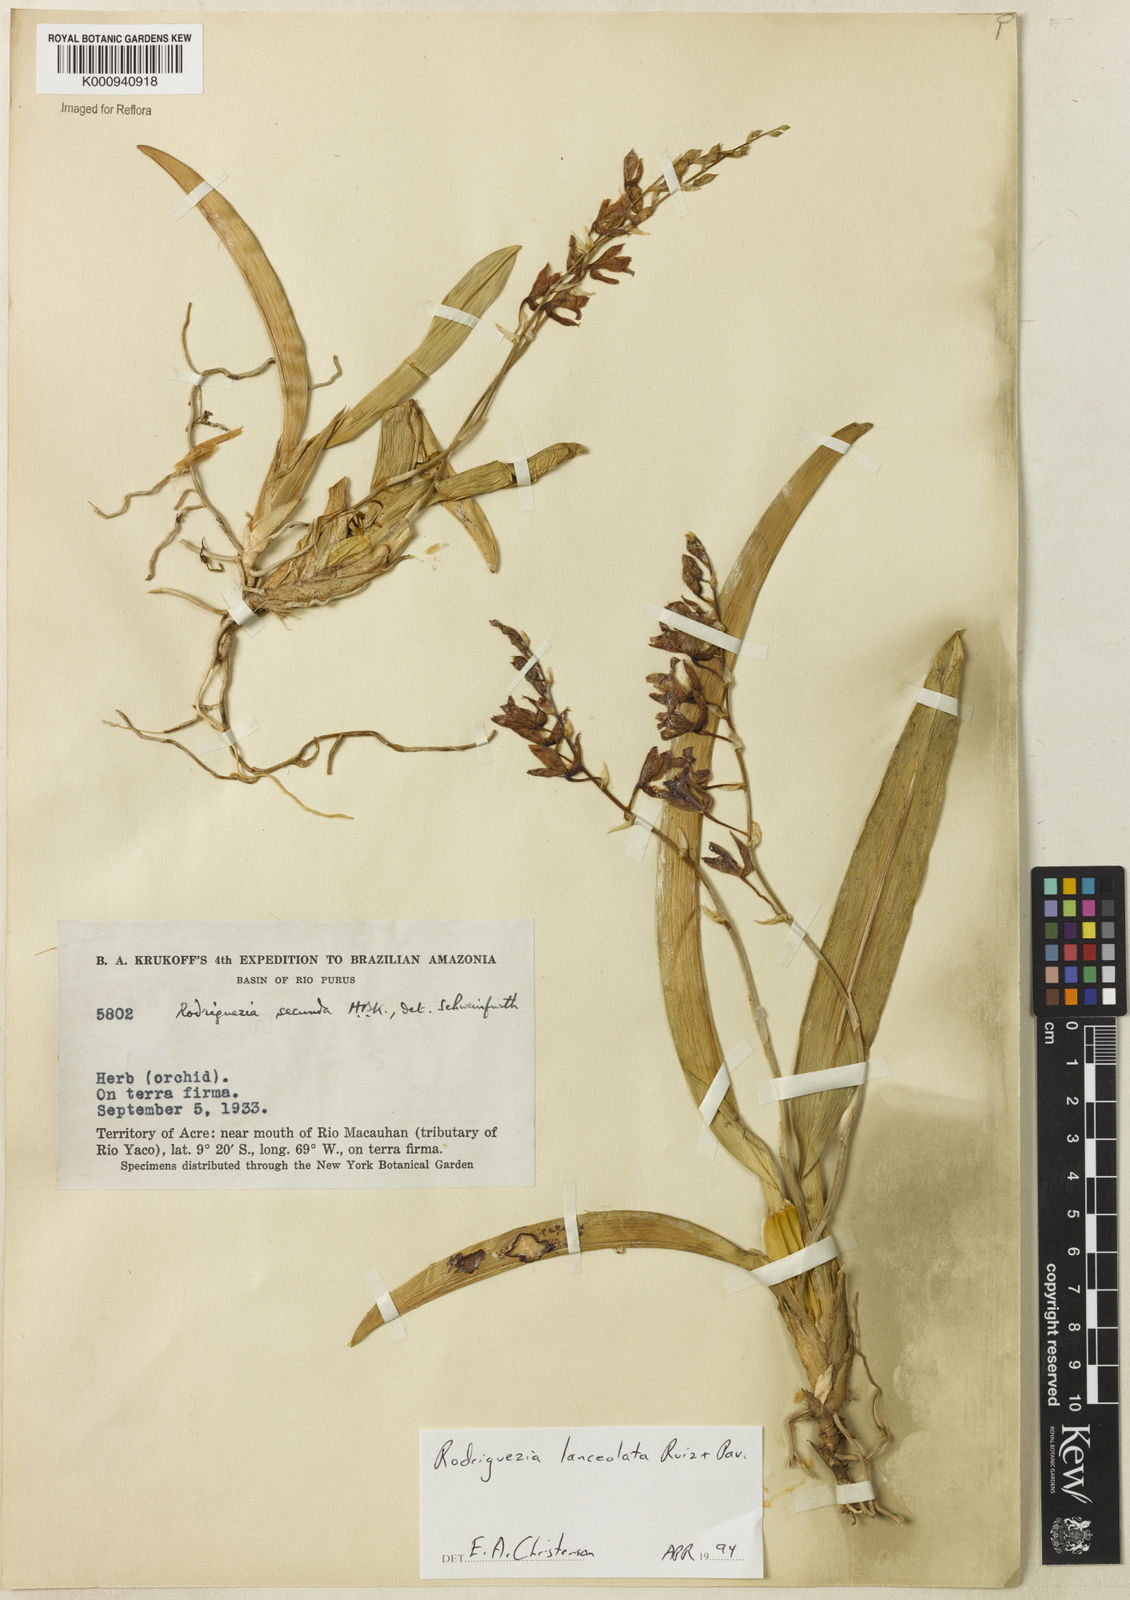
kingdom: Plantae
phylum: Tracheophyta
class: Liliopsida
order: Asparagales
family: Orchidaceae
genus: Rodriguezia
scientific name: Rodriguezia lanceolata
